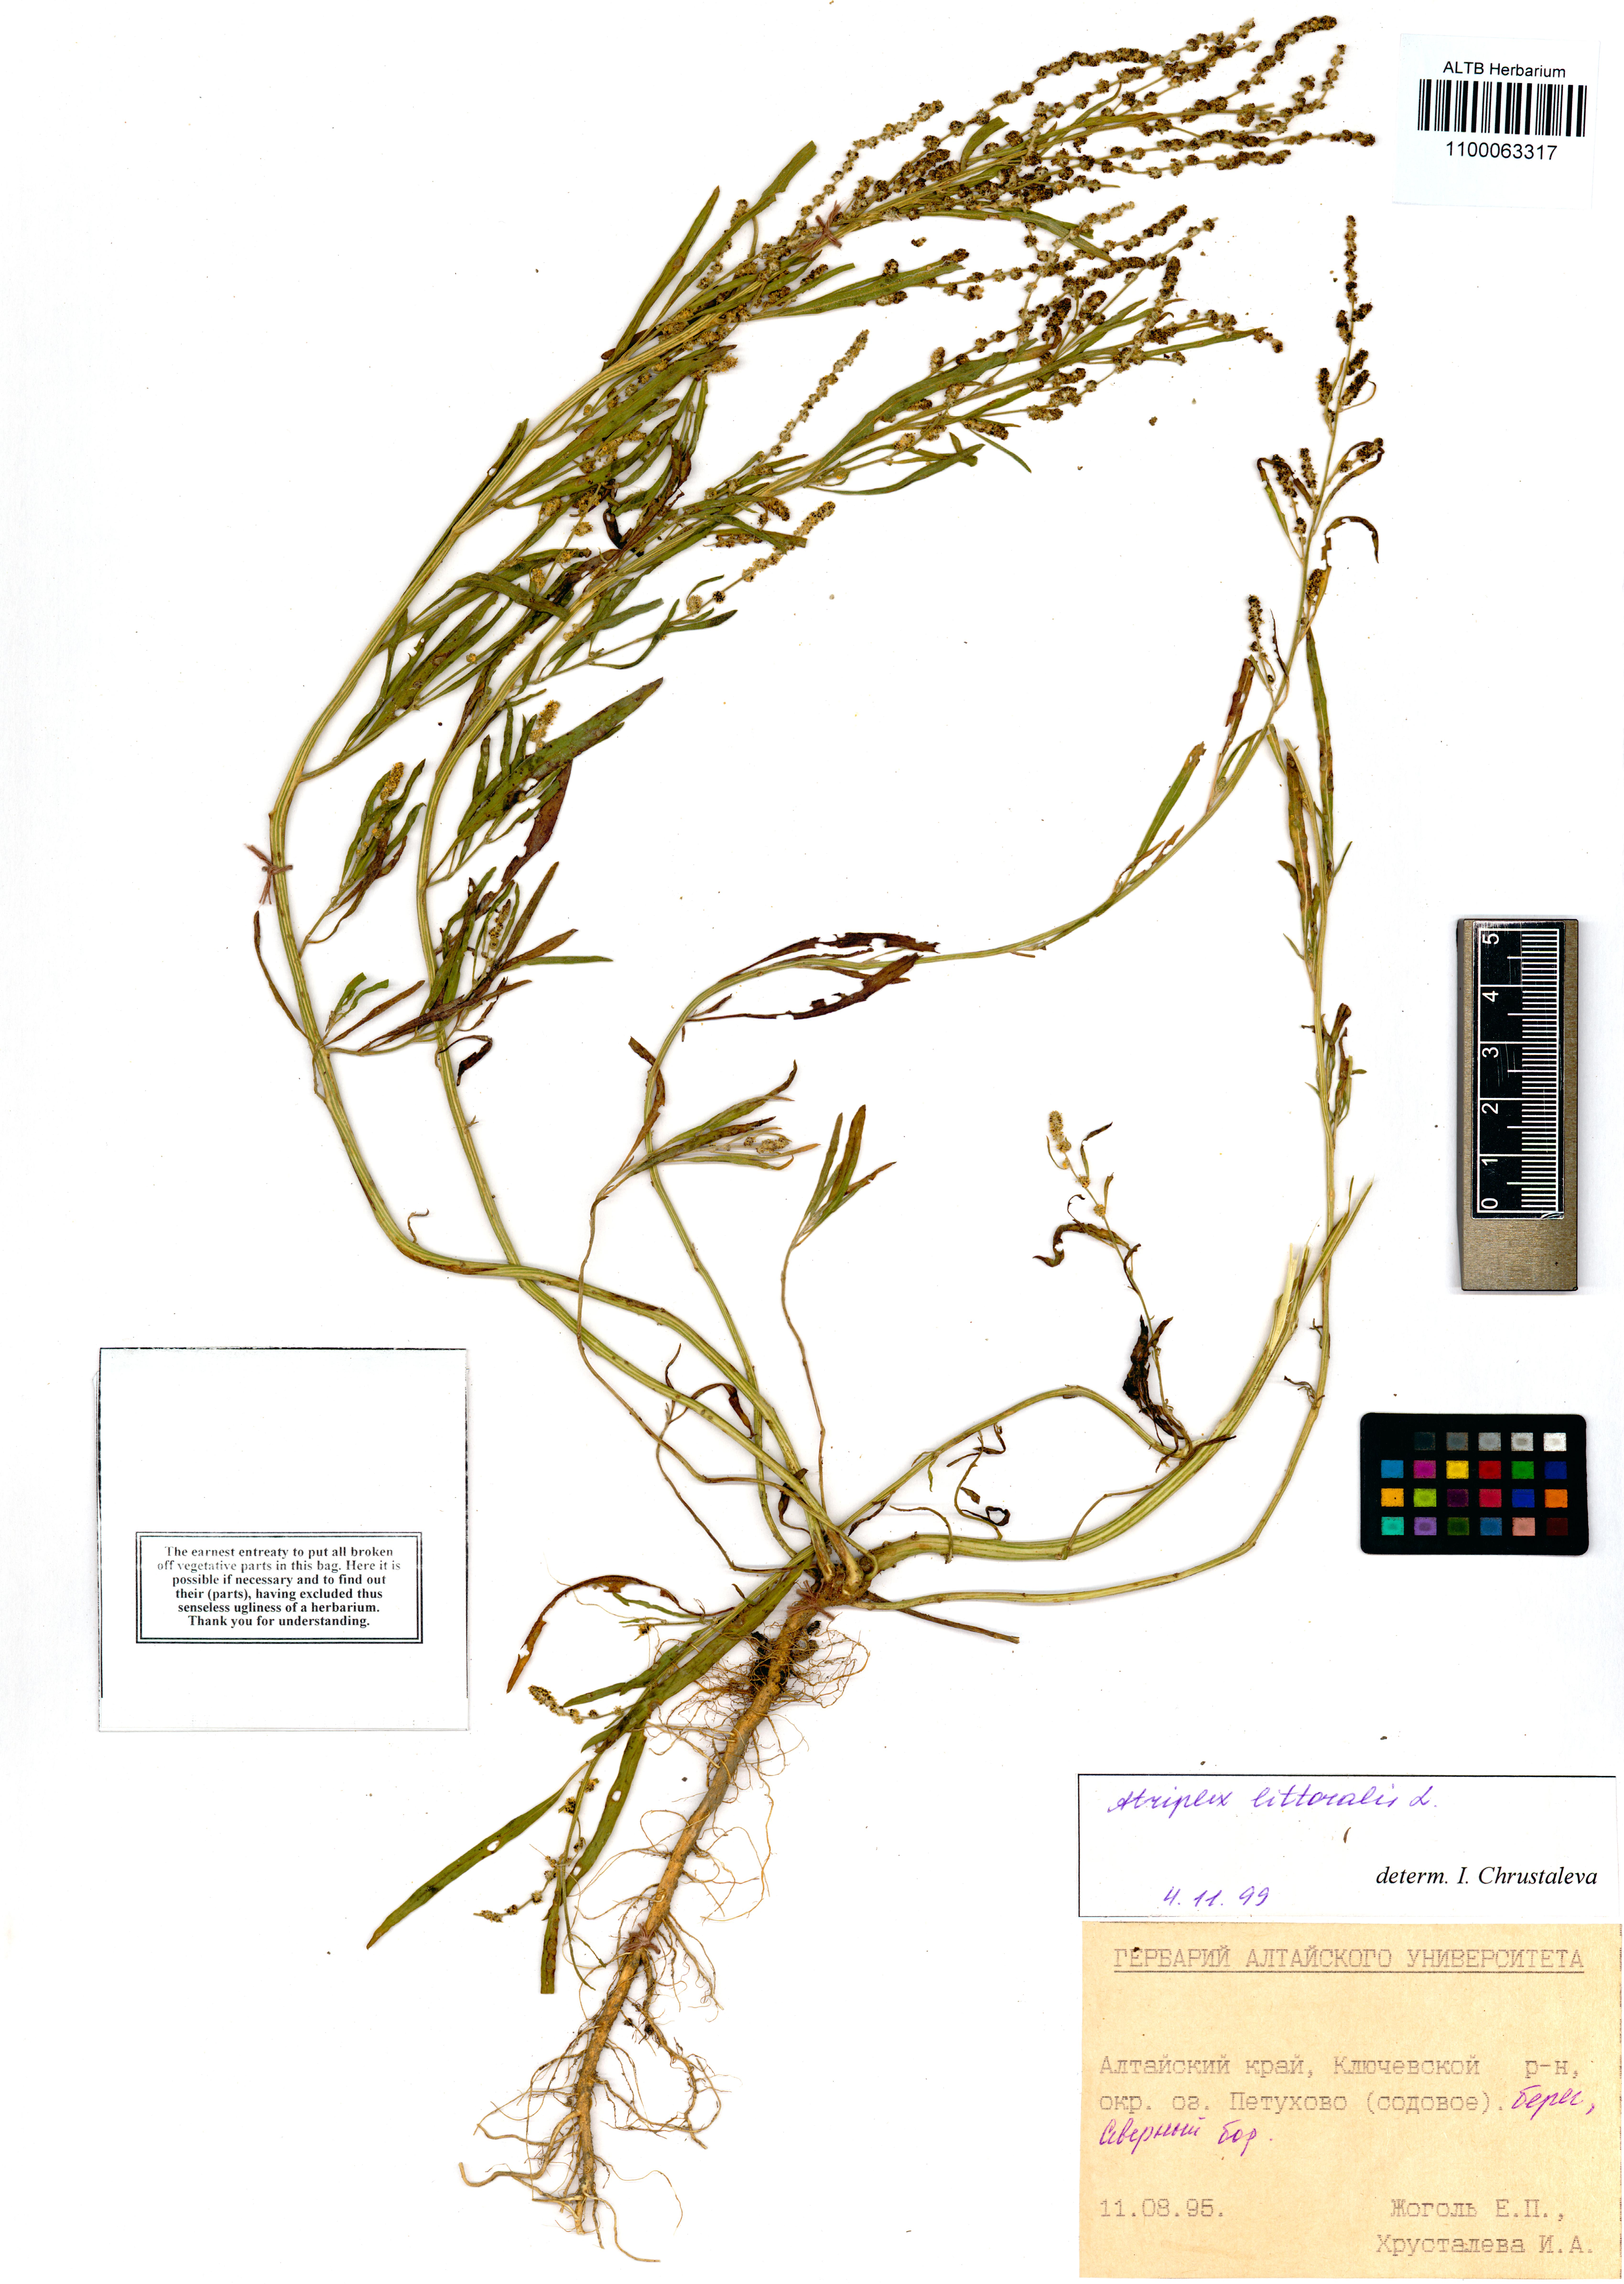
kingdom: Plantae
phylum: Tracheophyta
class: Magnoliopsida
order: Caryophyllales
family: Amaranthaceae
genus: Atriplex
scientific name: Atriplex littoralis
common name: Grass-leaved orache
